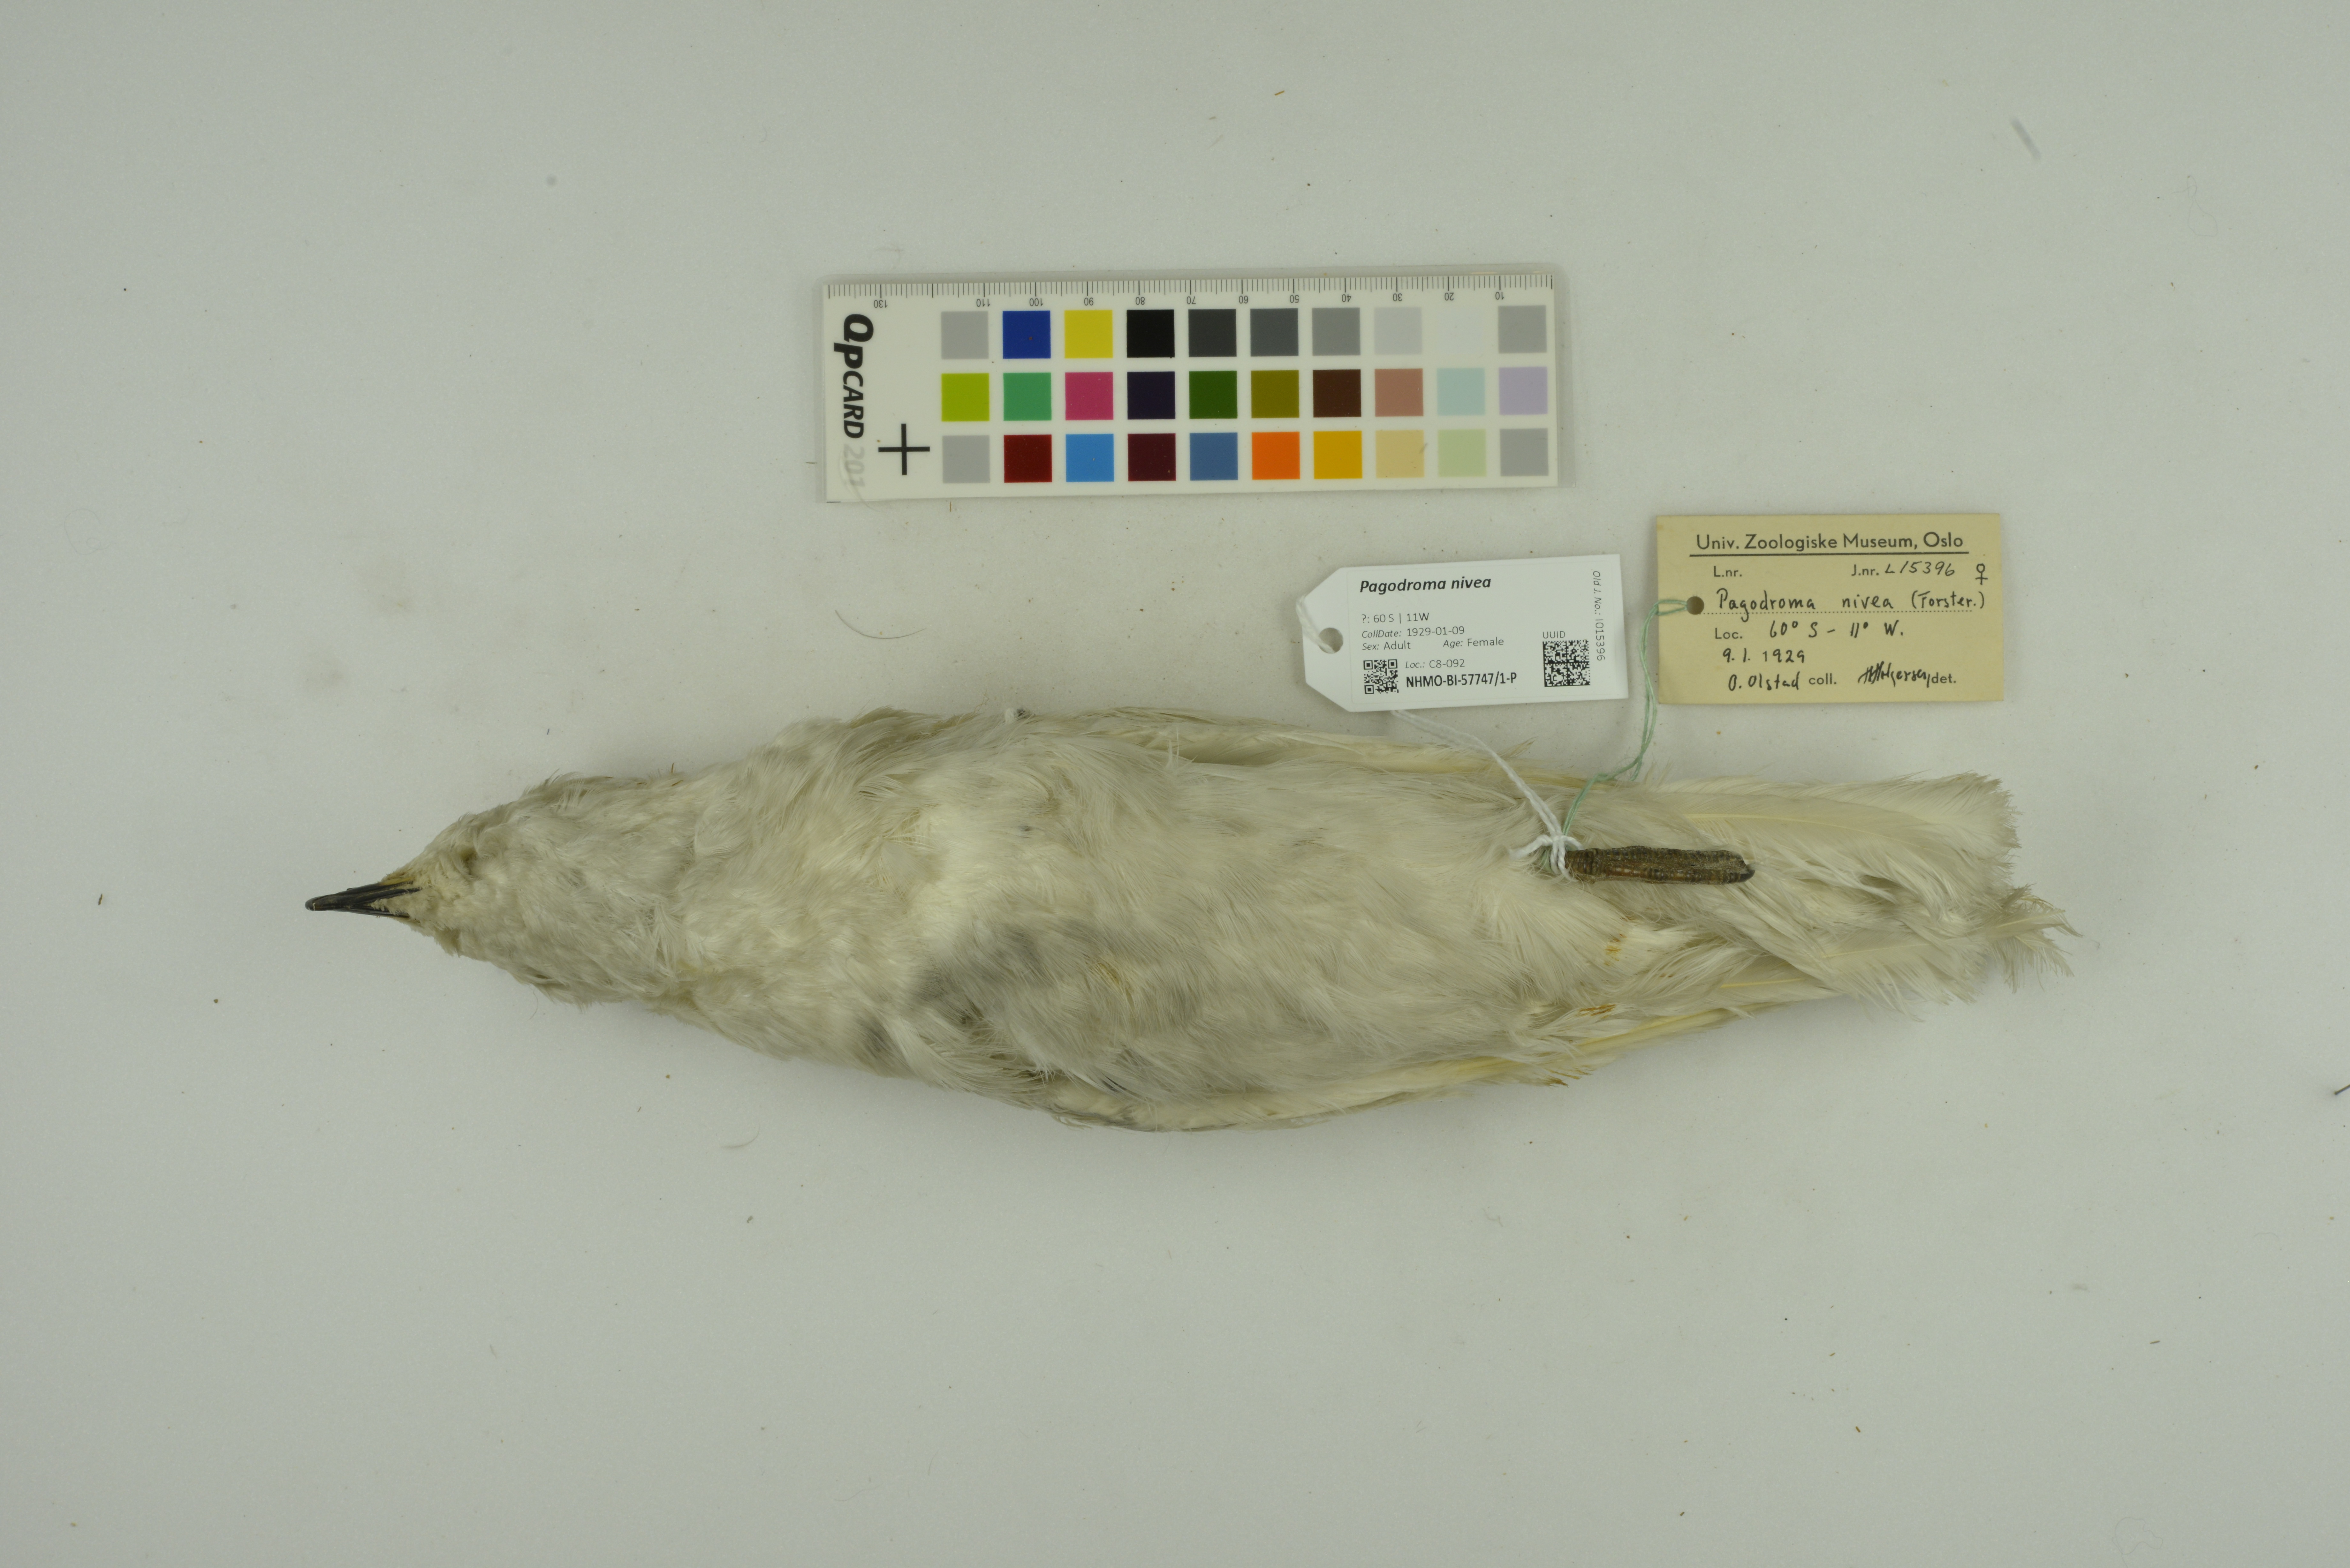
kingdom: Animalia
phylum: Chordata
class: Aves
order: Procellariiformes
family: Procellariidae
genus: Pagodroma
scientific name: Pagodroma nivea
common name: Snow petrel
